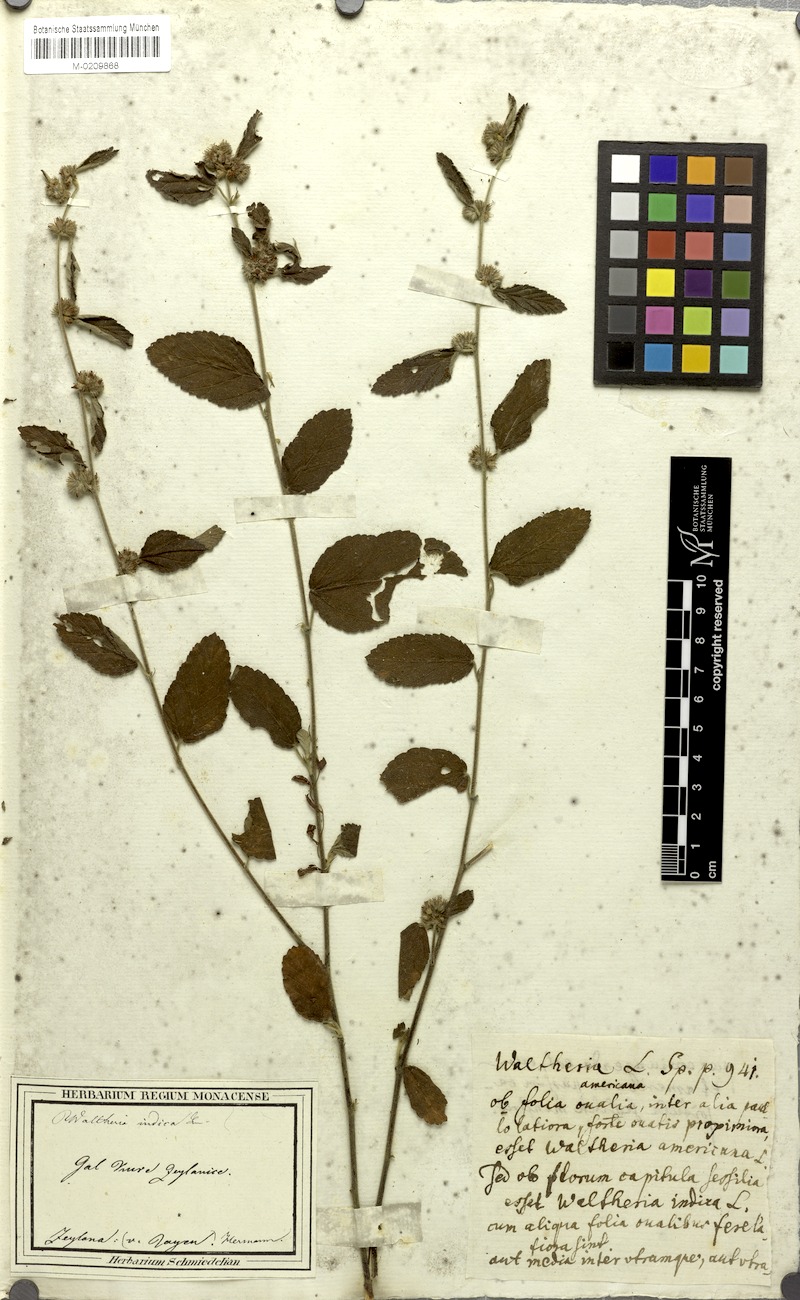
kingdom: Plantae
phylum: Tracheophyta
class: Magnoliopsida
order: Malvales
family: Malvaceae
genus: Waltheria
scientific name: Waltheria indica
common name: Leather-coat
